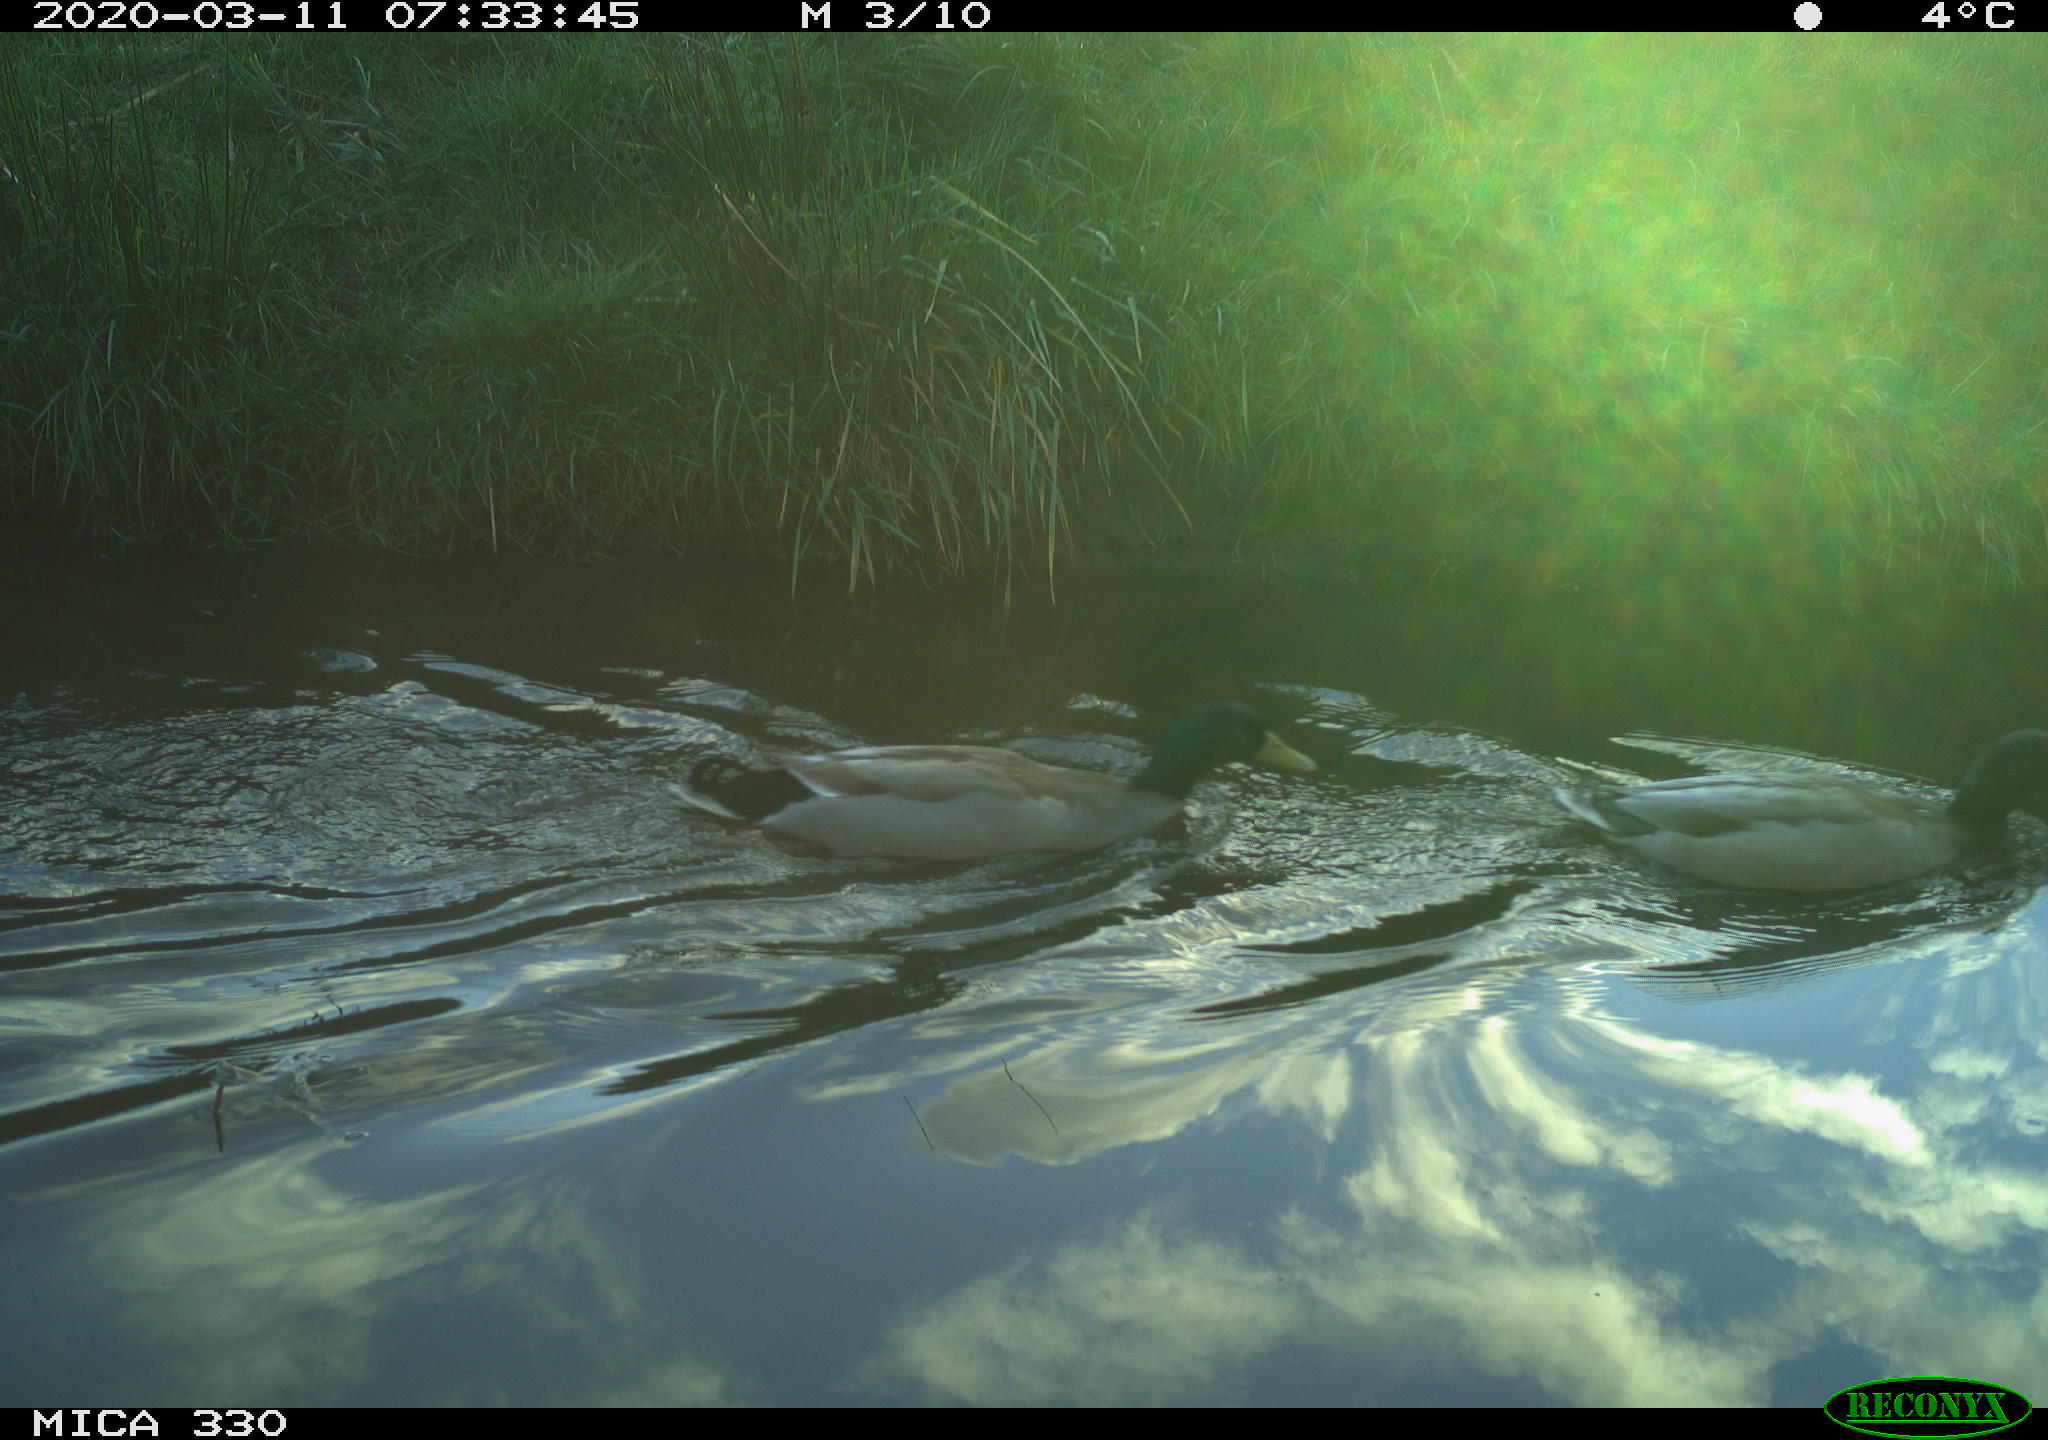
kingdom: Animalia
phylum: Chordata
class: Aves
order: Anseriformes
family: Anatidae
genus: Anas
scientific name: Anas platyrhynchos
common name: Mallard
